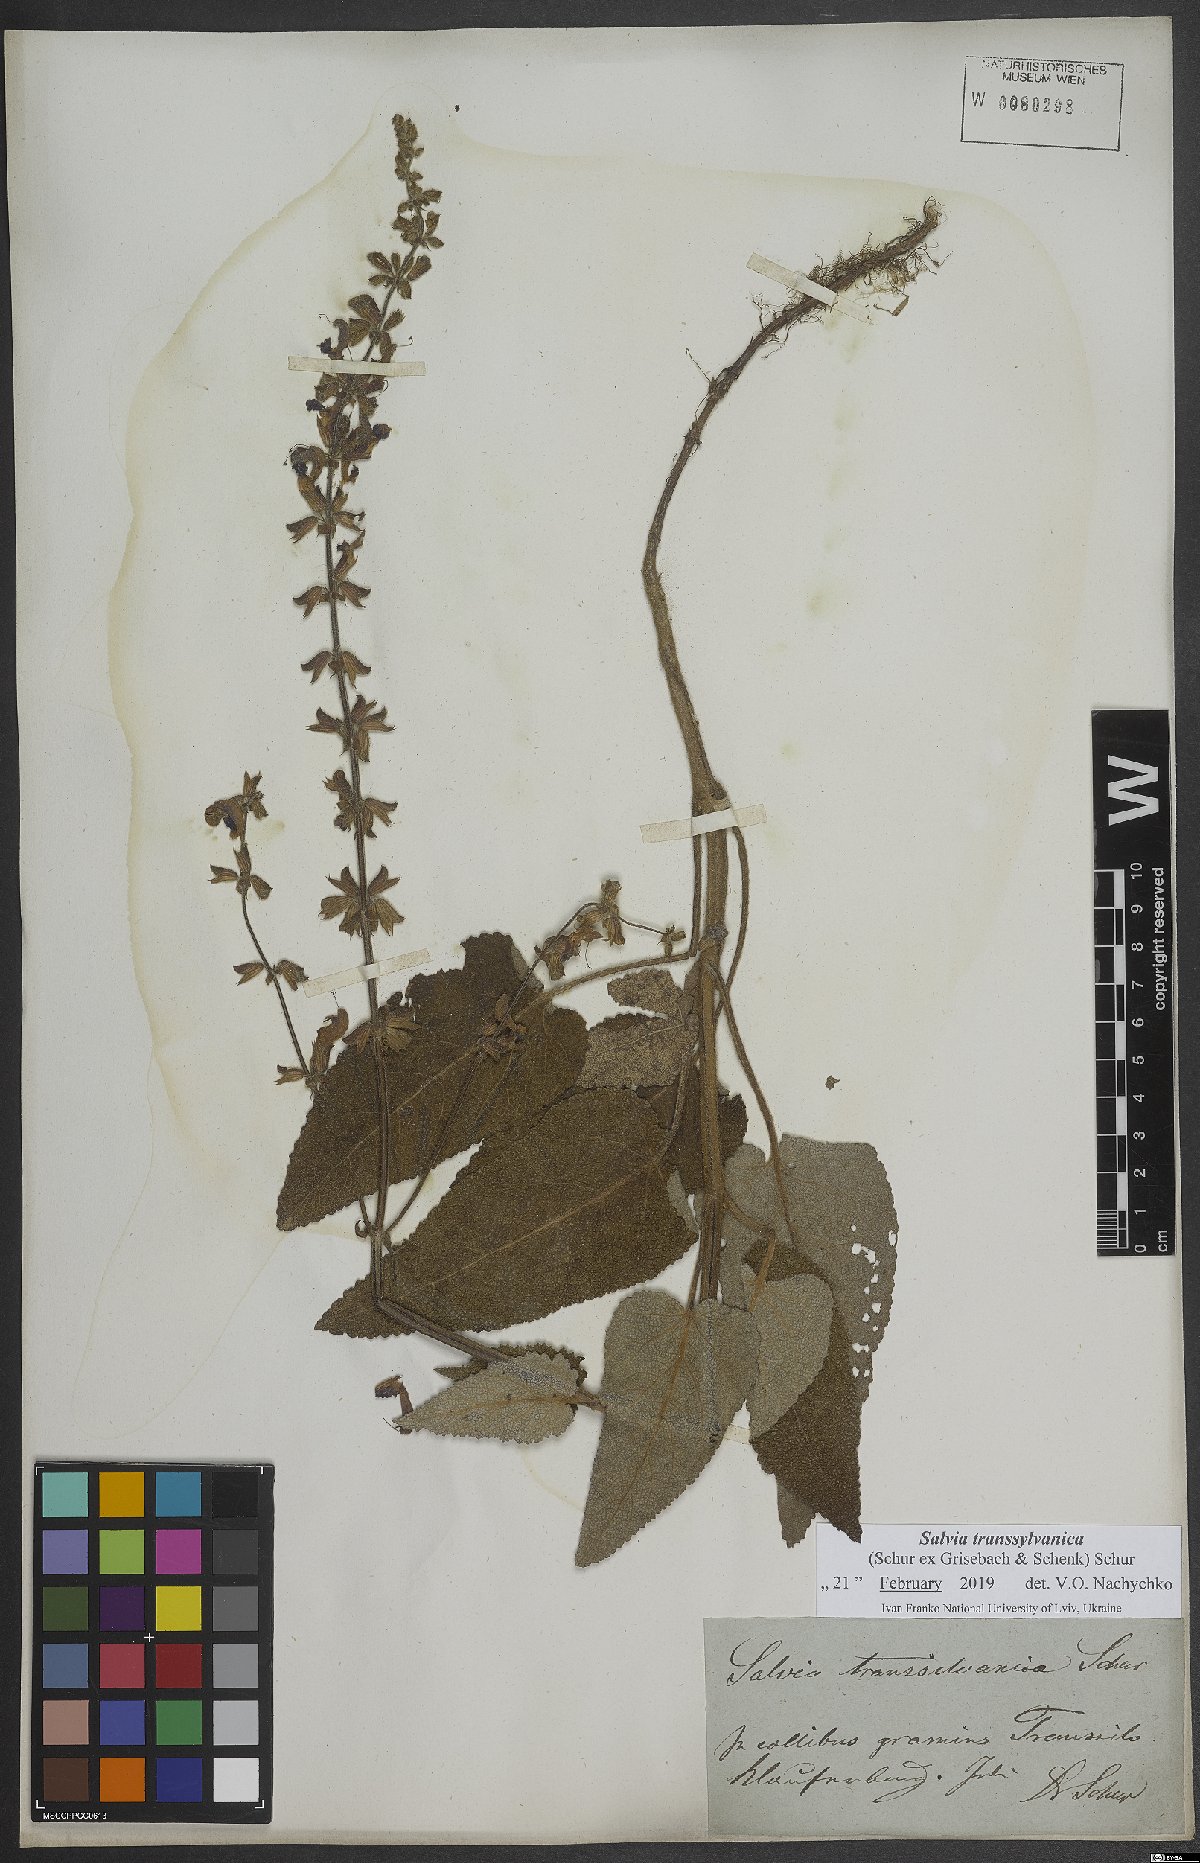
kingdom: Plantae
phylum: Tracheophyta
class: Magnoliopsida
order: Lamiales
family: Lamiaceae
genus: Salvia
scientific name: Salvia transsylvanica
